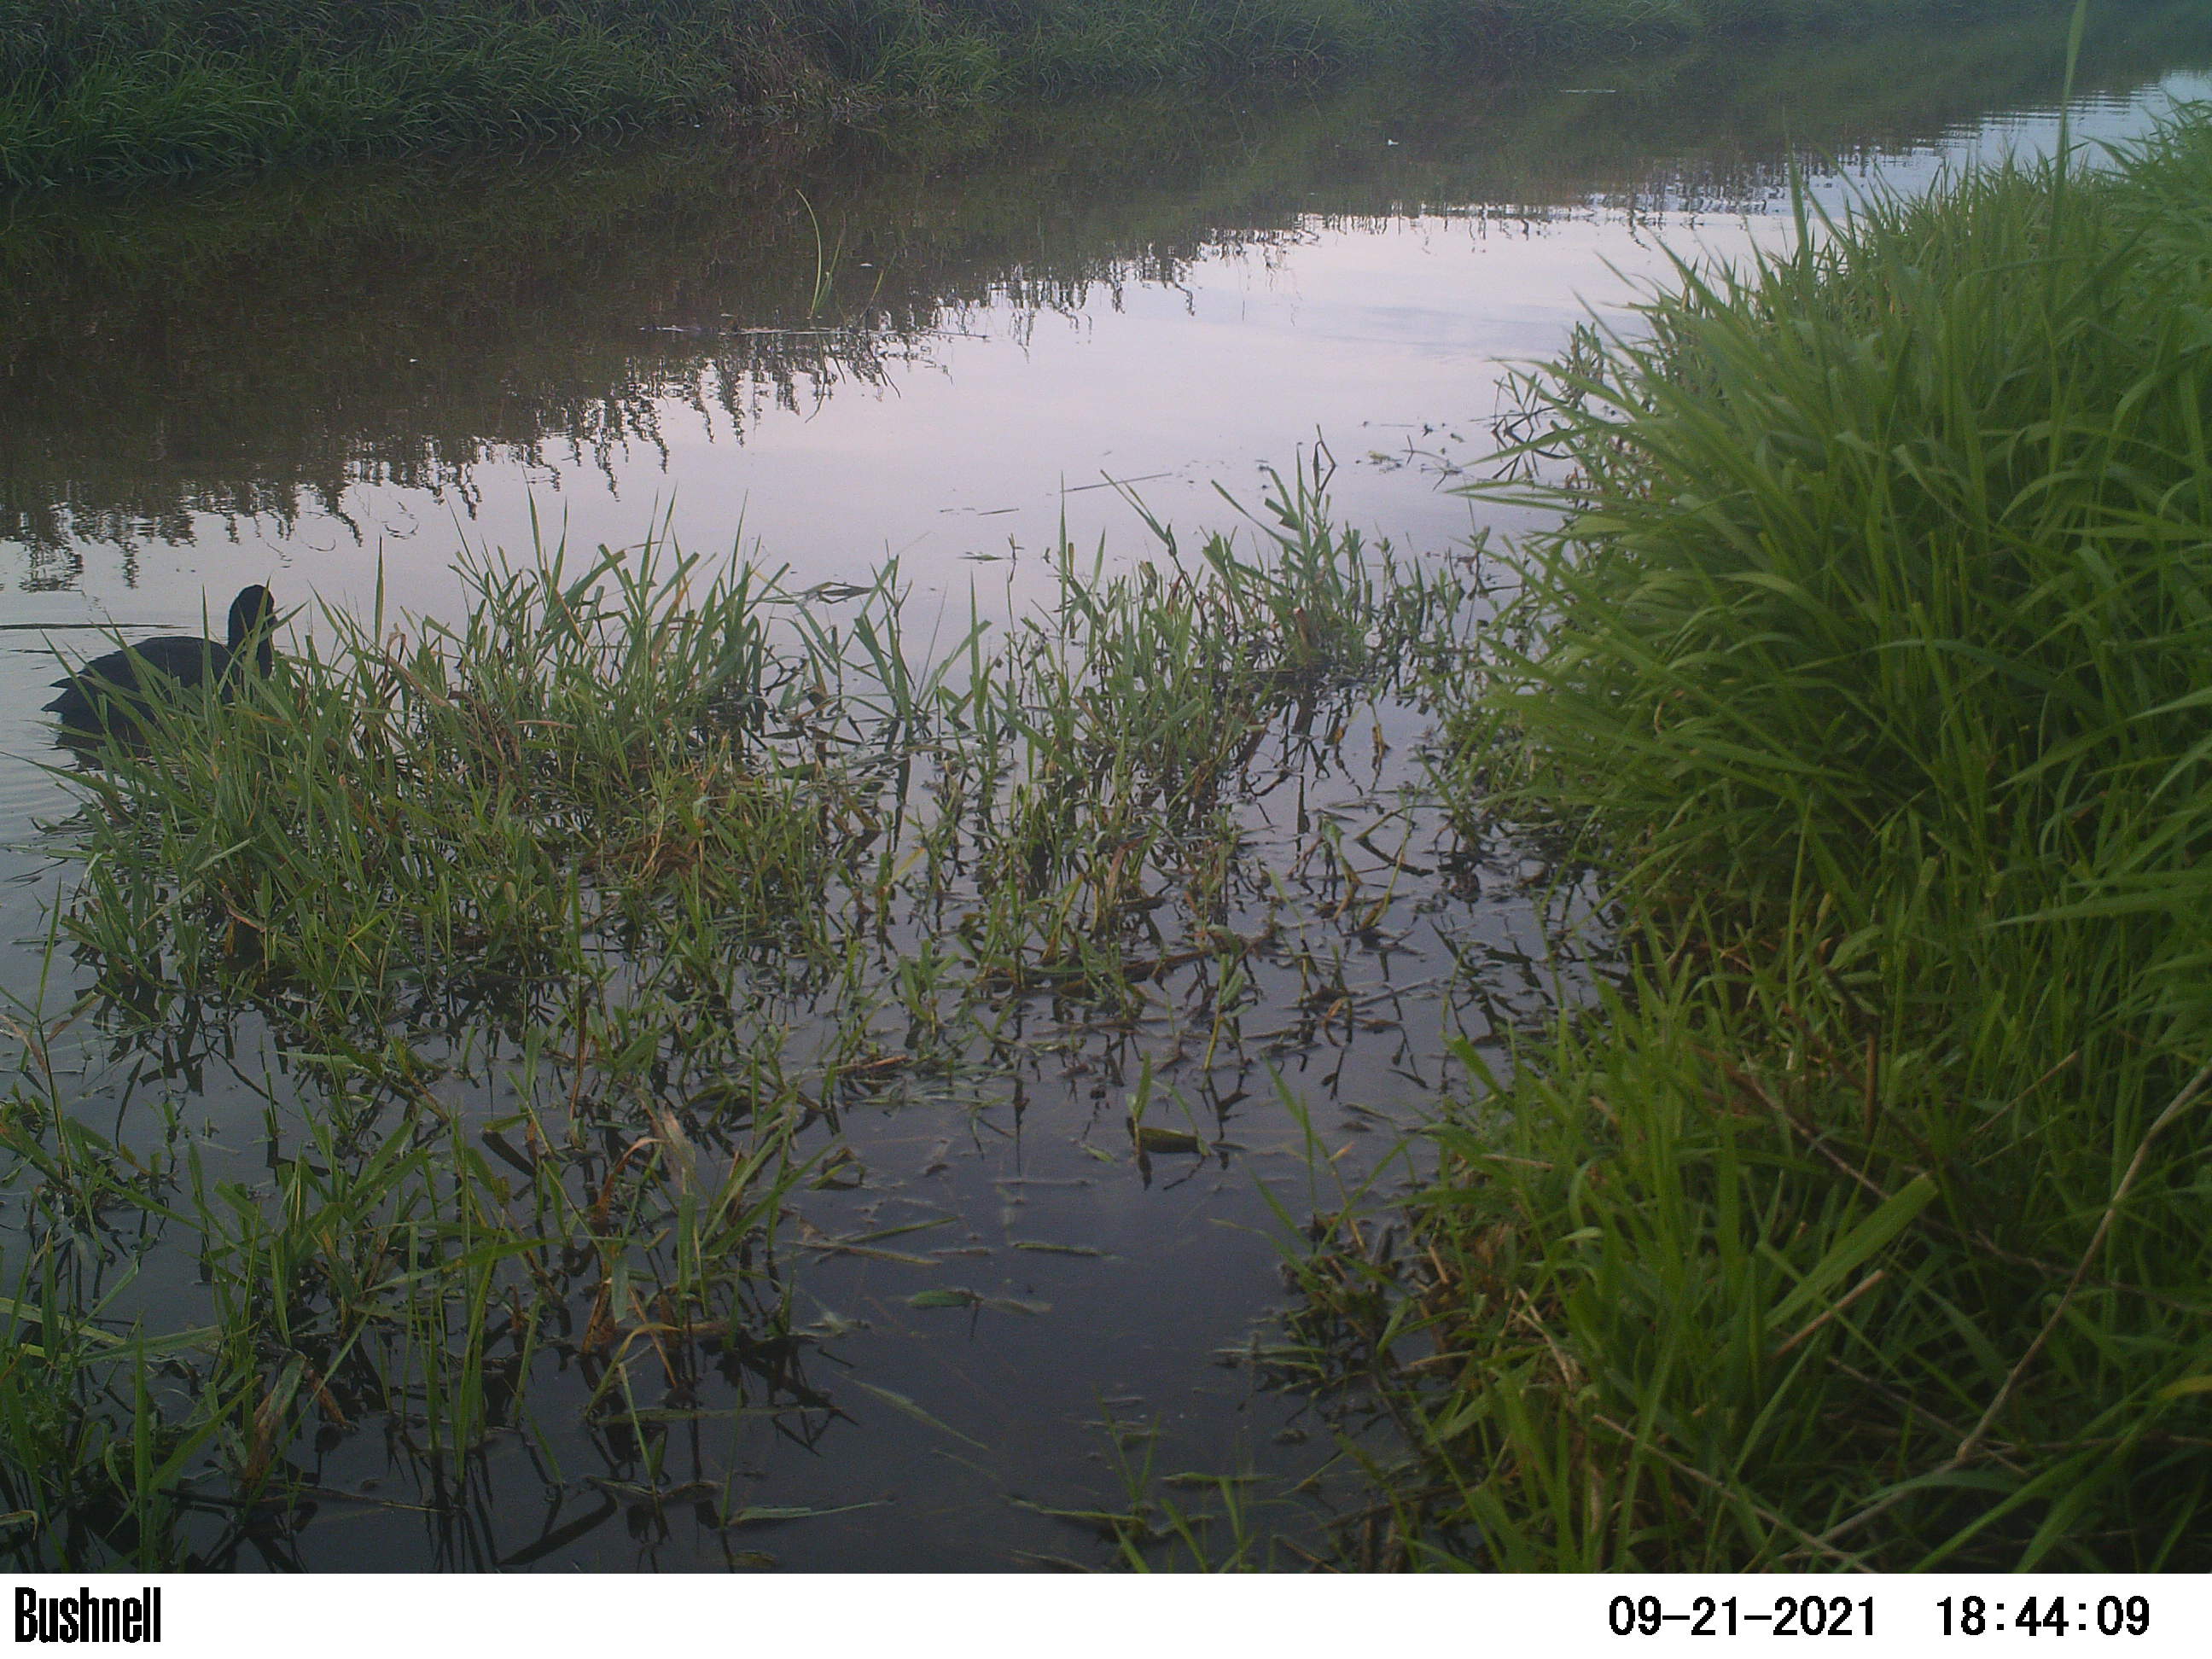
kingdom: Animalia
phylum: Chordata
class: Aves
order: Gruiformes
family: Rallidae
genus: Fulica
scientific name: Fulica atra
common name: Eurasian coot
